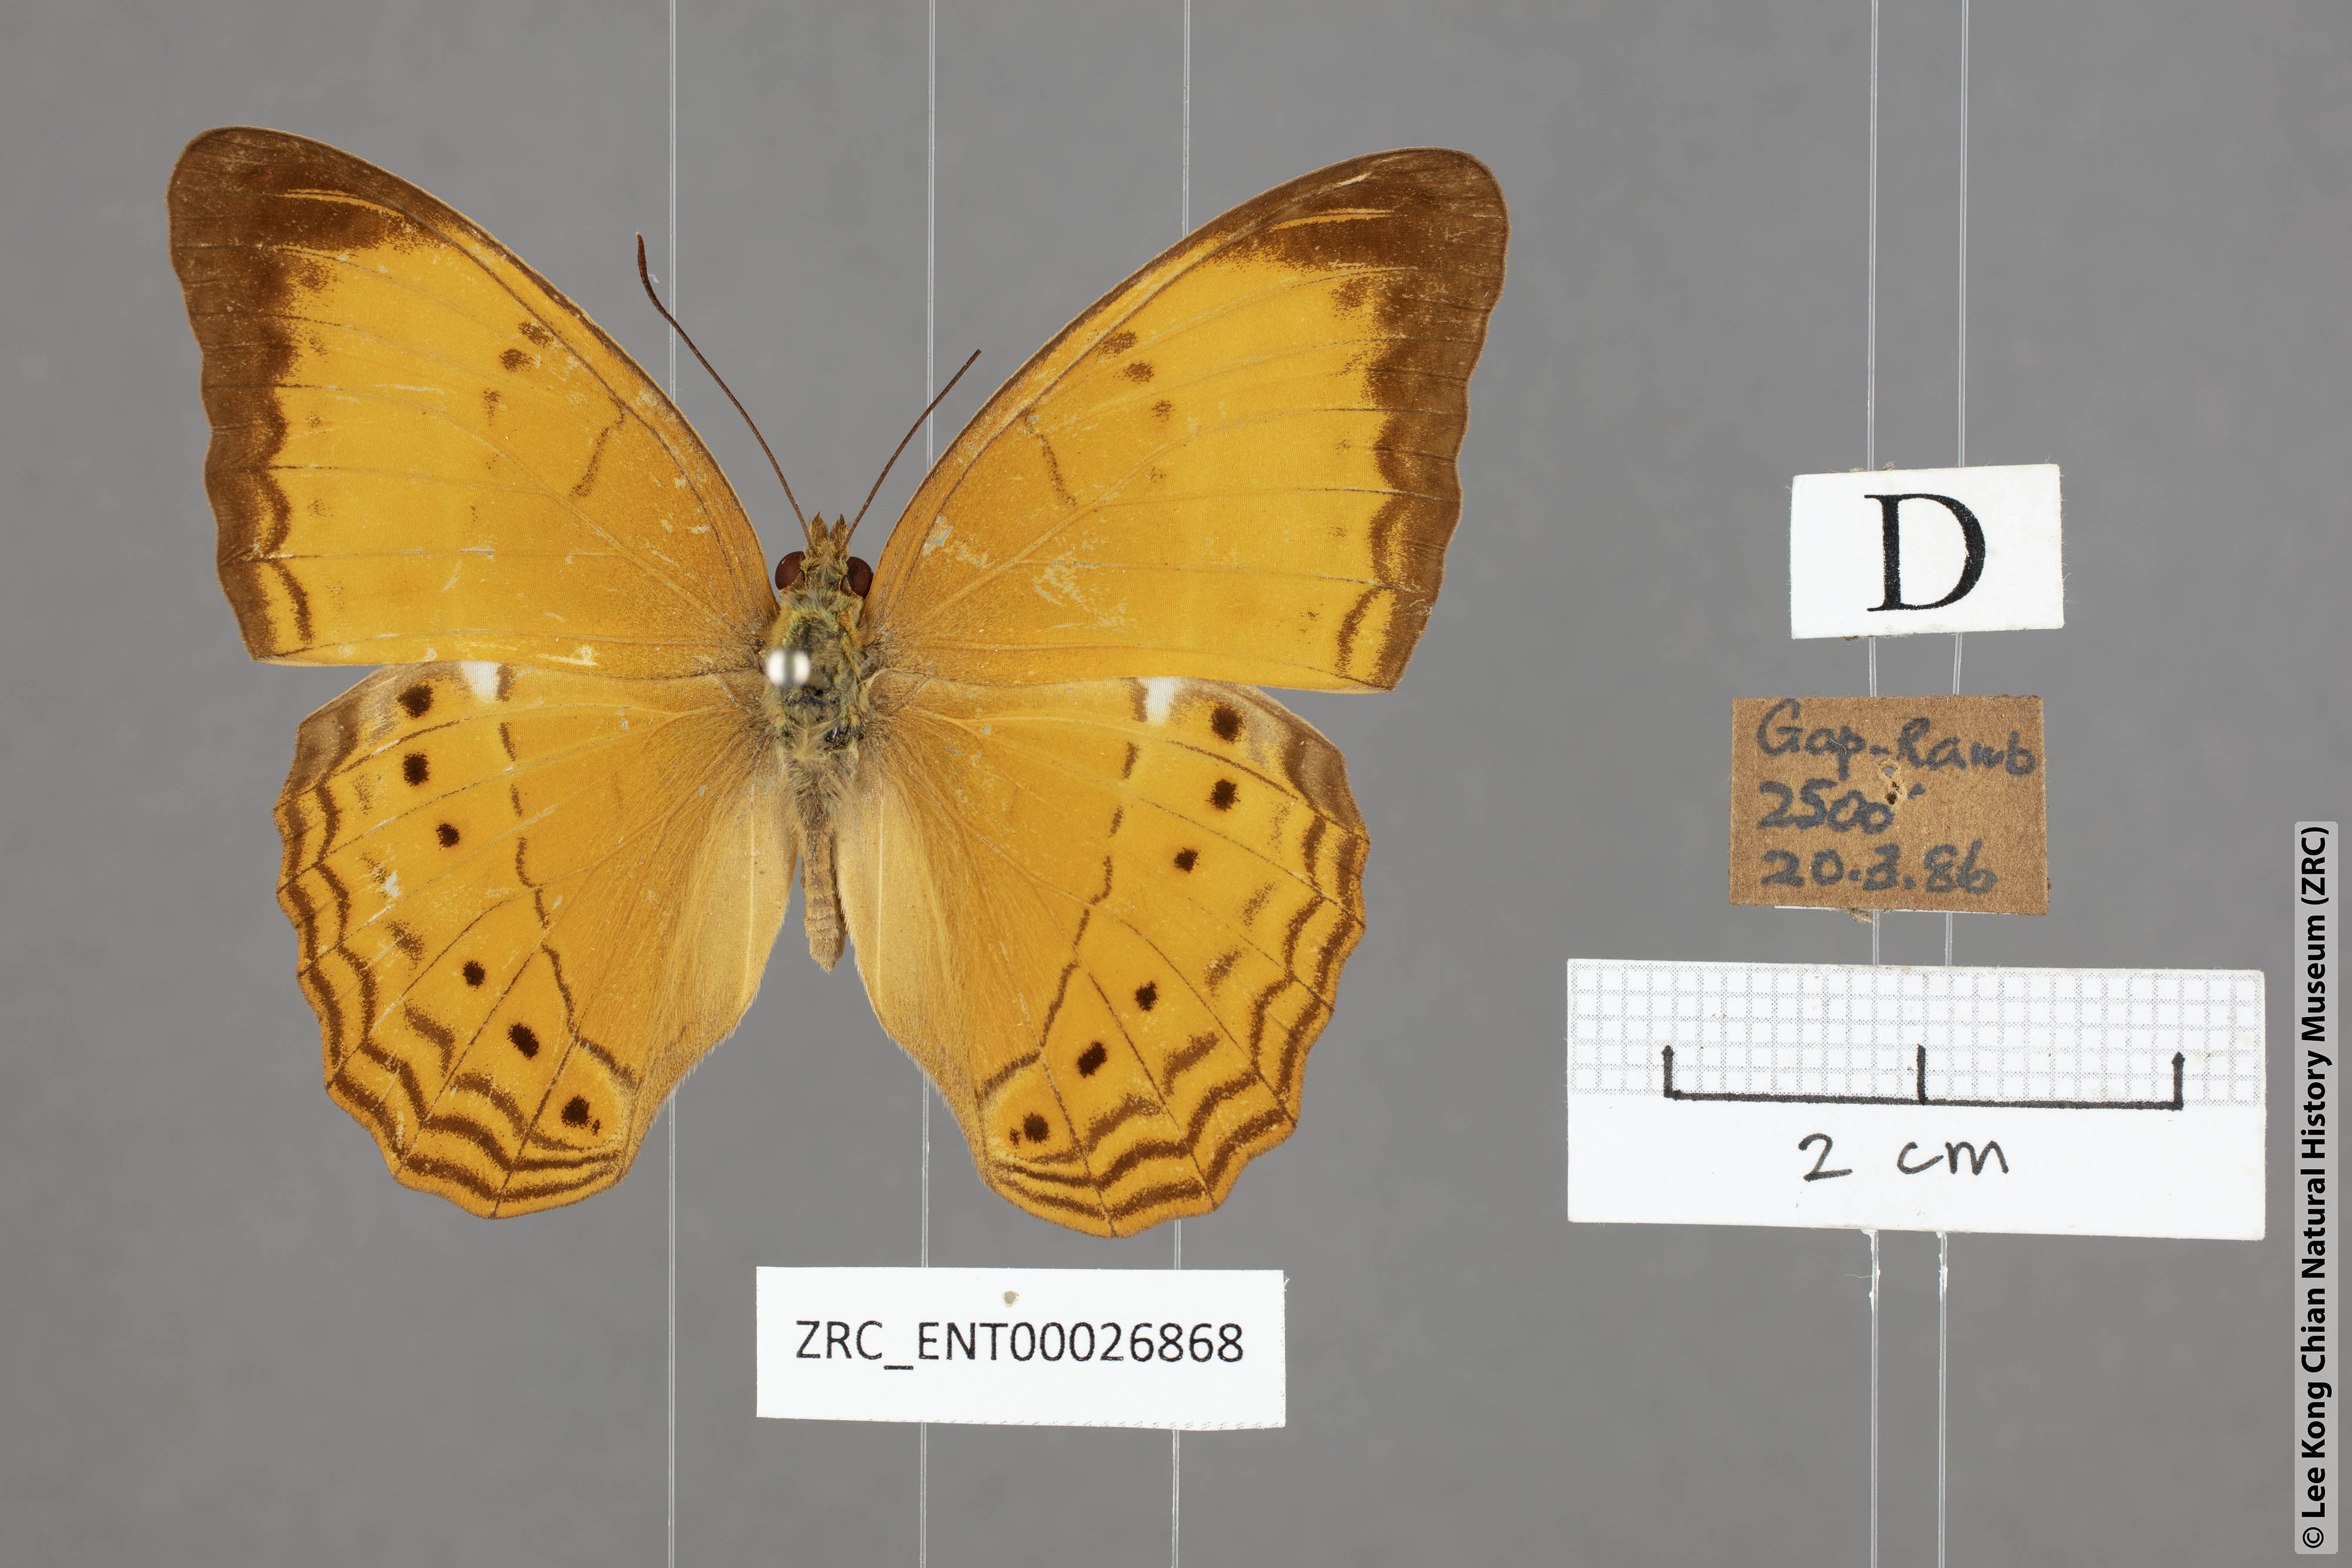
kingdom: Animalia
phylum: Arthropoda
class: Insecta
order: Lepidoptera
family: Nymphalidae
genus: Cirrochroa
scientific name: Cirrochroa malaya
